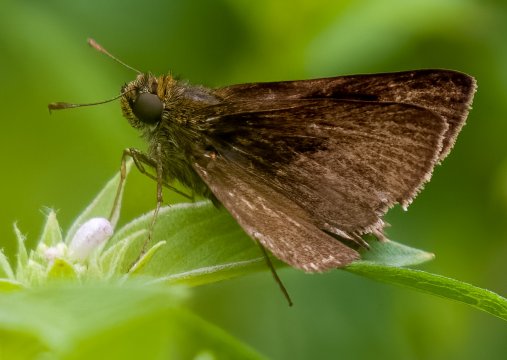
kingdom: Animalia
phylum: Arthropoda
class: Insecta
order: Lepidoptera
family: Hesperiidae
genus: Euphyes
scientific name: Euphyes vestris
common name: Dun Skipper
